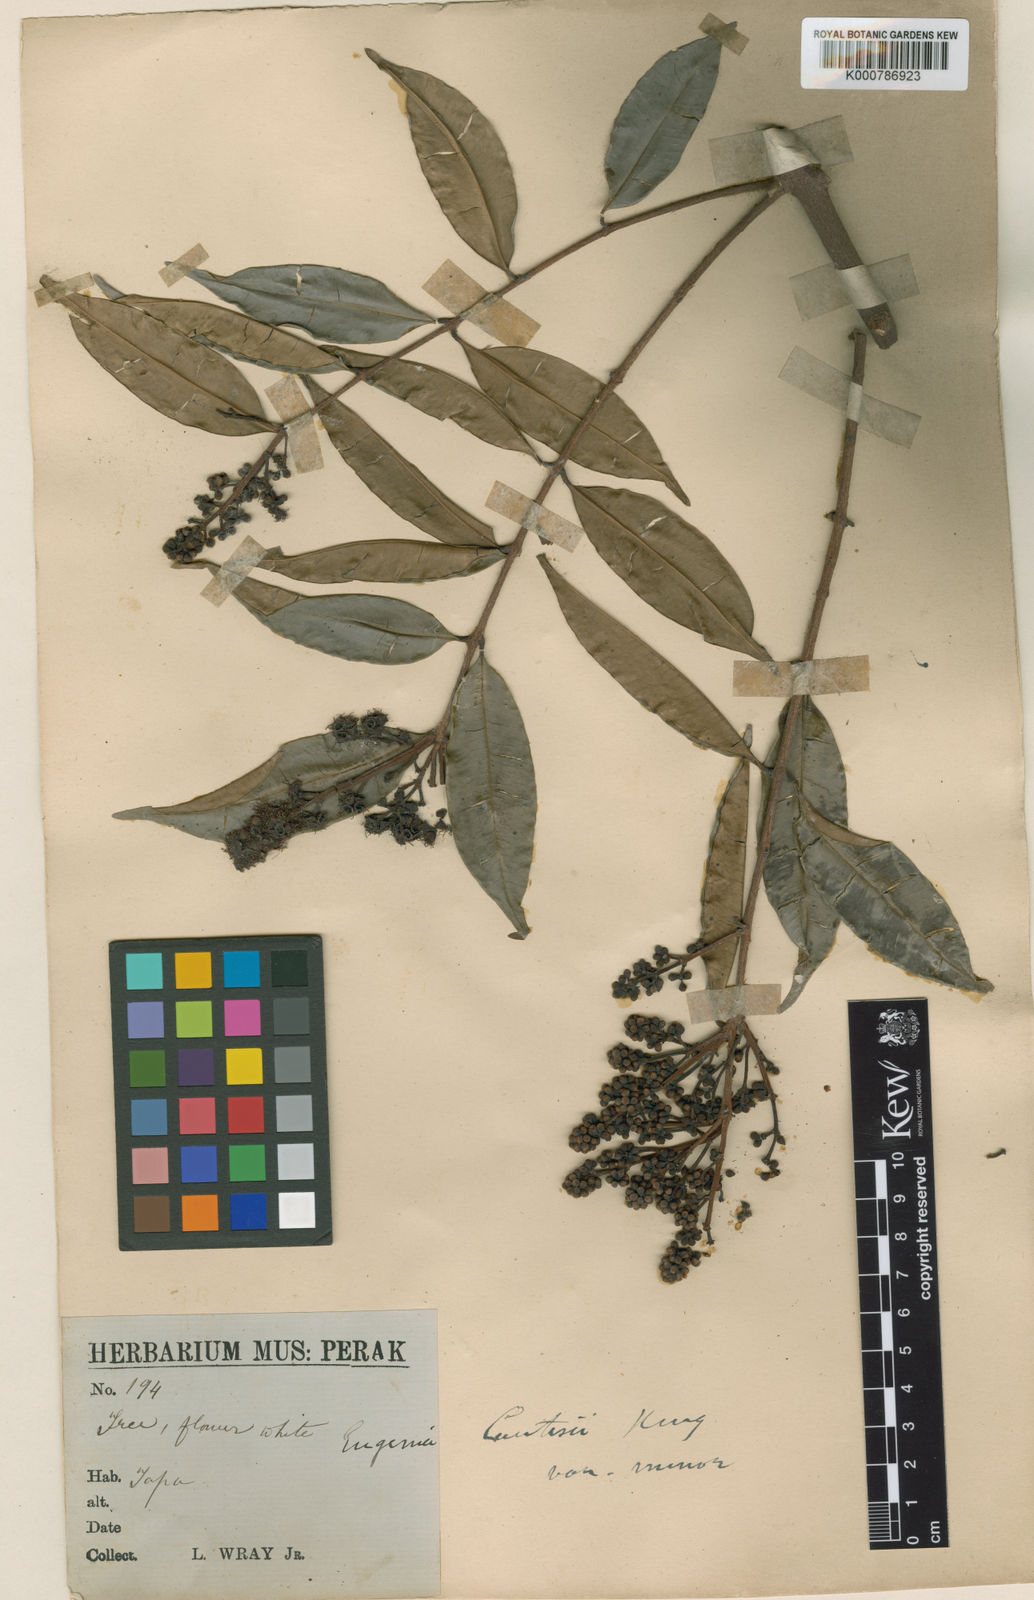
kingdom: Plantae
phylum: Tracheophyta
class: Magnoliopsida
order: Myrtales
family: Myrtaceae
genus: Syzygium
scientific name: Syzygium curtisii
